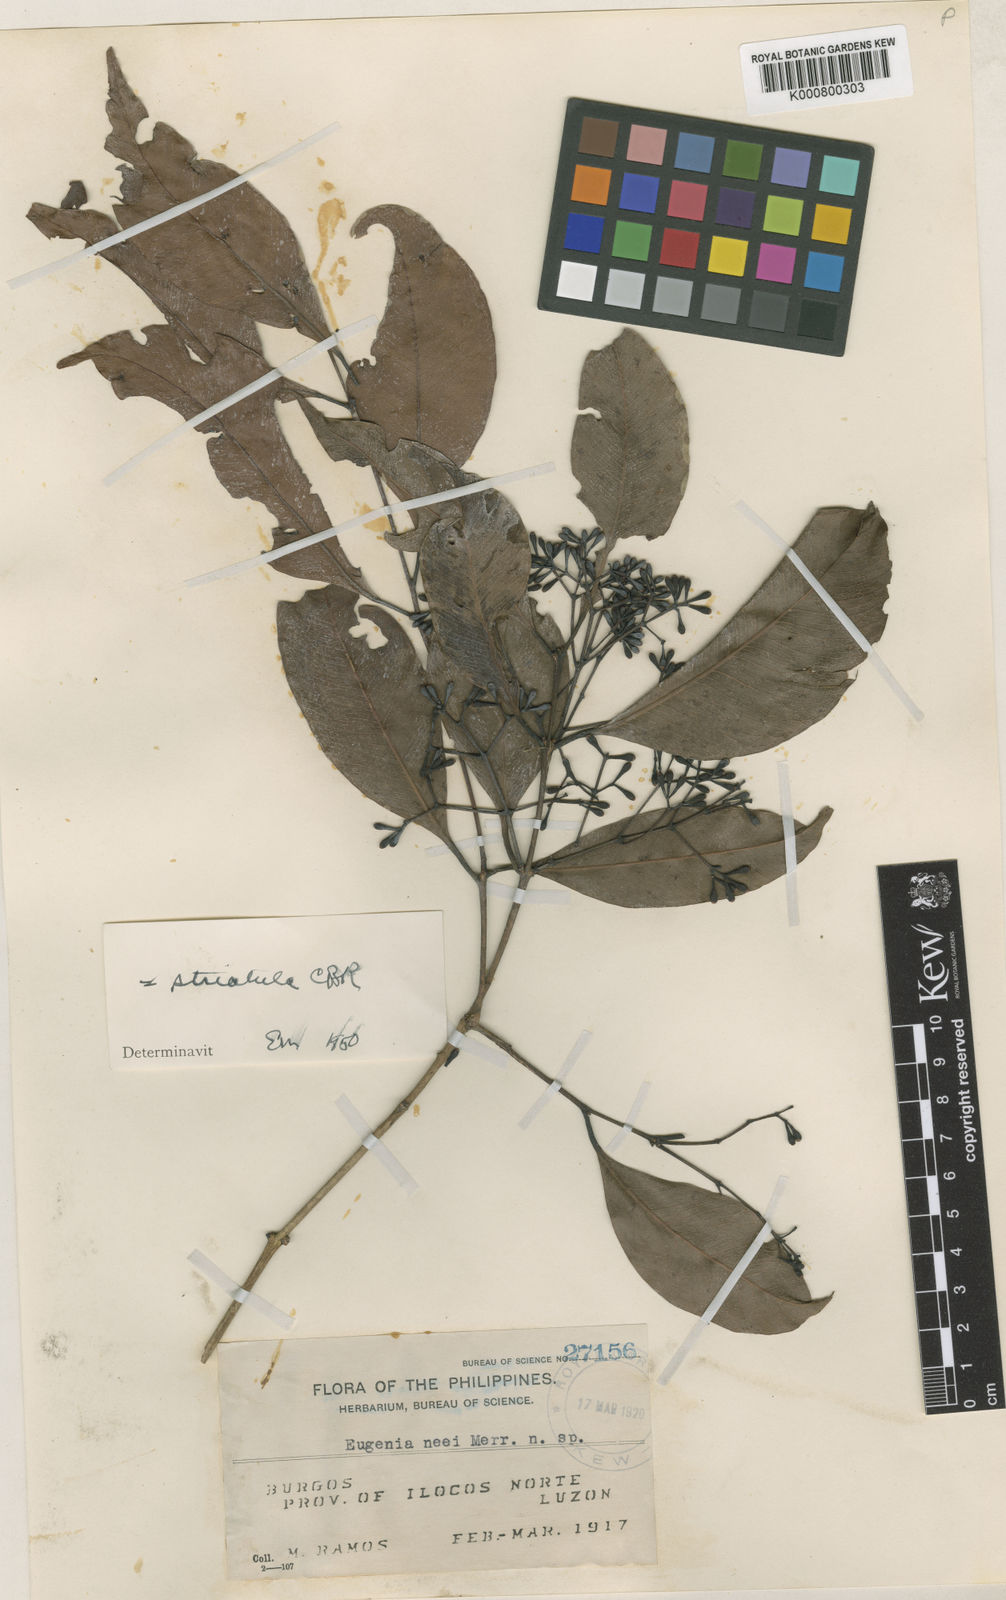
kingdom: Plantae
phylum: Tracheophyta
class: Magnoliopsida
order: Myrtales
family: Myrtaceae
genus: Syzygium
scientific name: Syzygium striatulum
